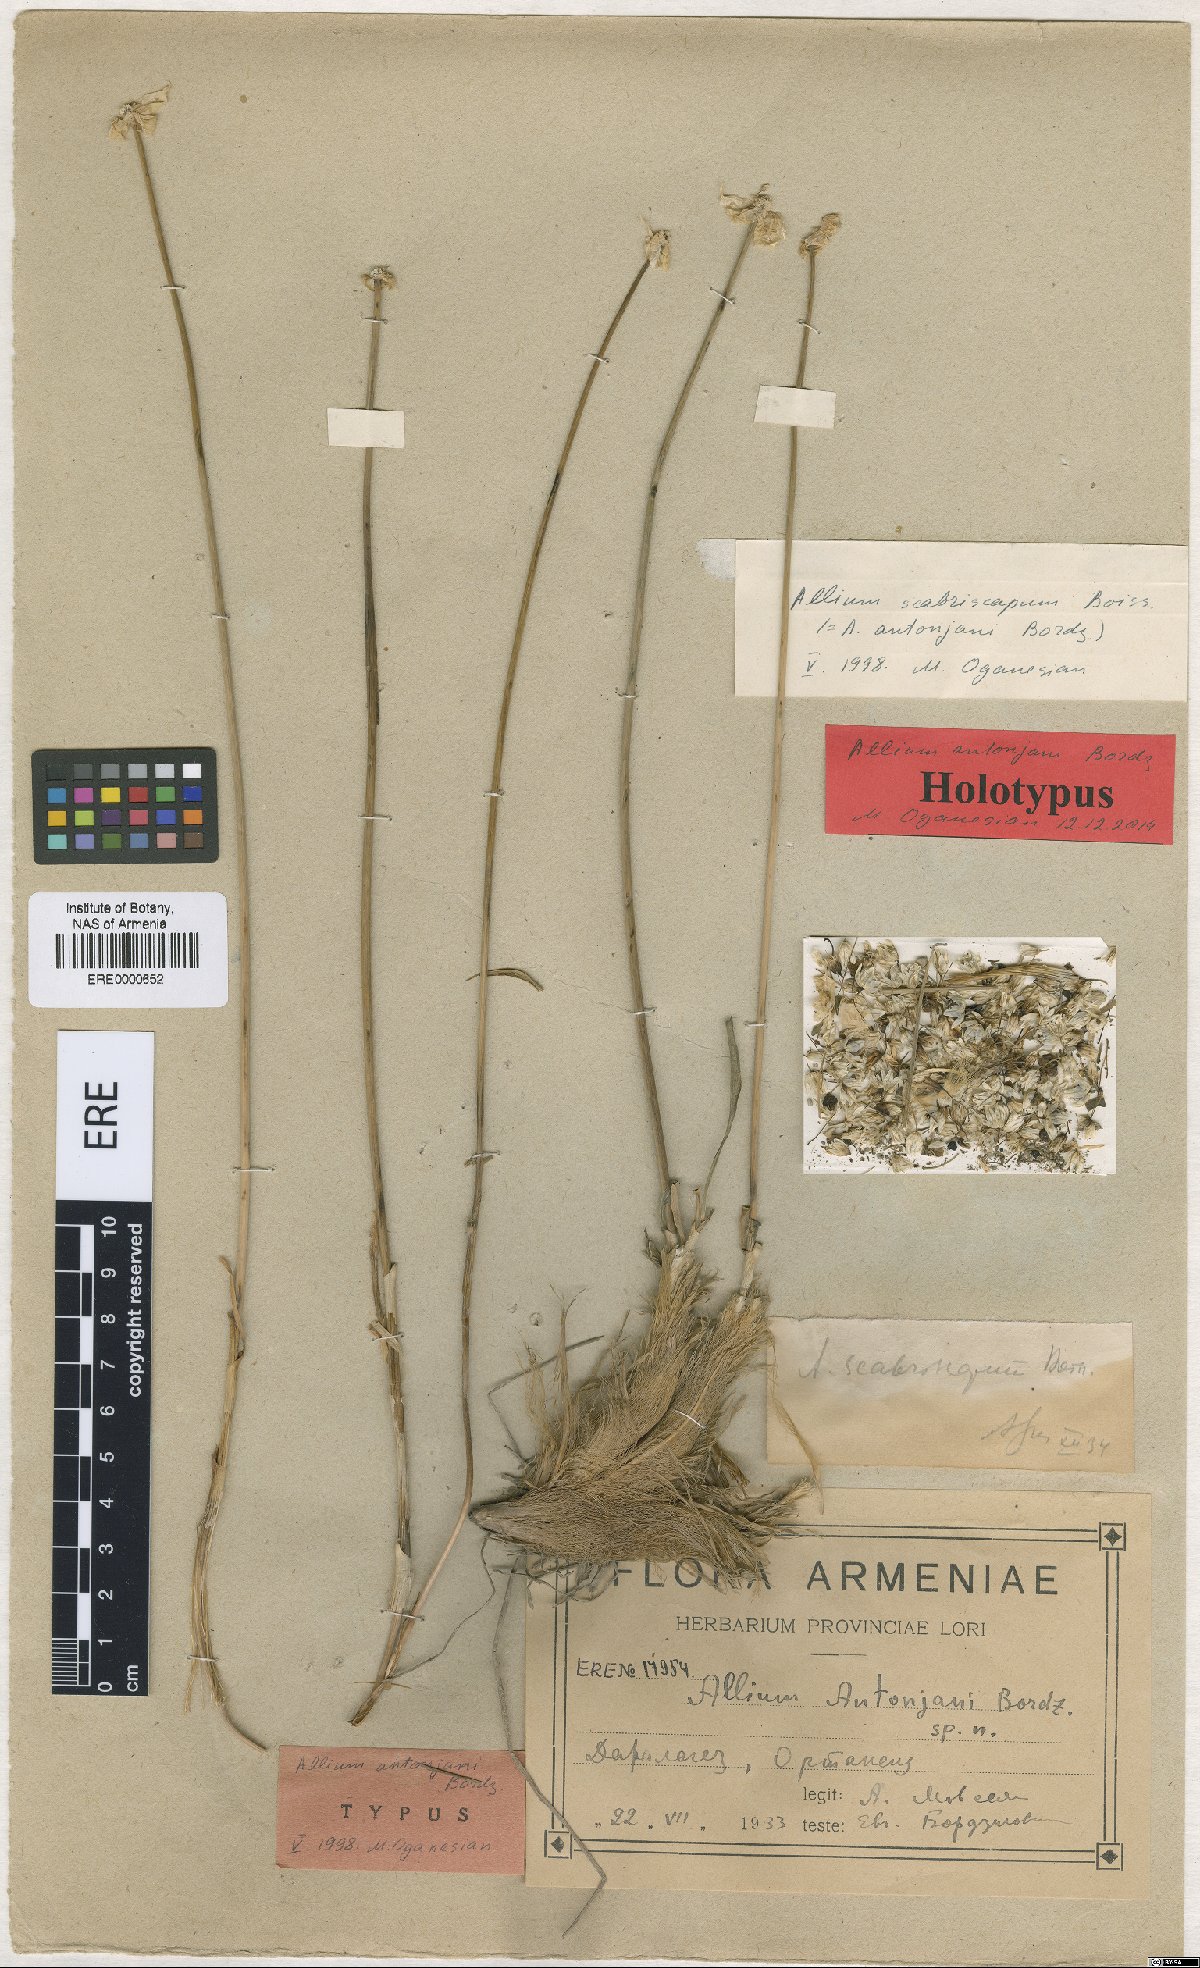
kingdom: Plantae
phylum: Tracheophyta
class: Liliopsida
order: Asparagales
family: Amaryllidaceae
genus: Allium
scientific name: Allium scabriscapum
